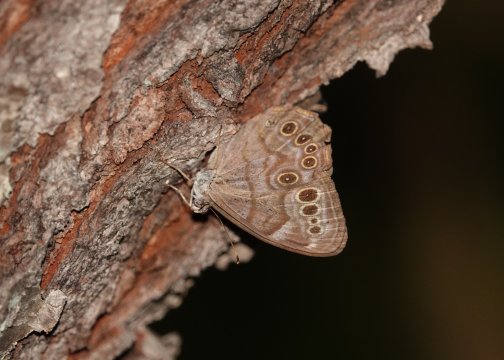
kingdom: Animalia
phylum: Arthropoda
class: Insecta
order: Lepidoptera
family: Nymphalidae
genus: Lethe
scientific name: Lethe anthedon
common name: Northern Pearly-Eye
